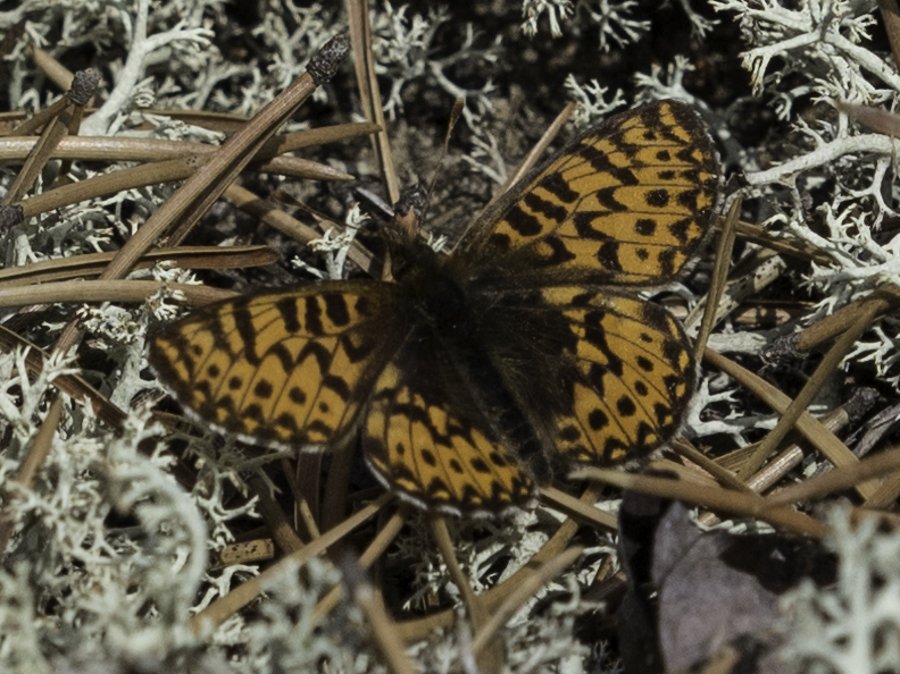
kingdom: Animalia
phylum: Arthropoda
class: Insecta
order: Lepidoptera
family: Nymphalidae
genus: Boloria
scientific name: Boloria freija
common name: Freija Fritillary
